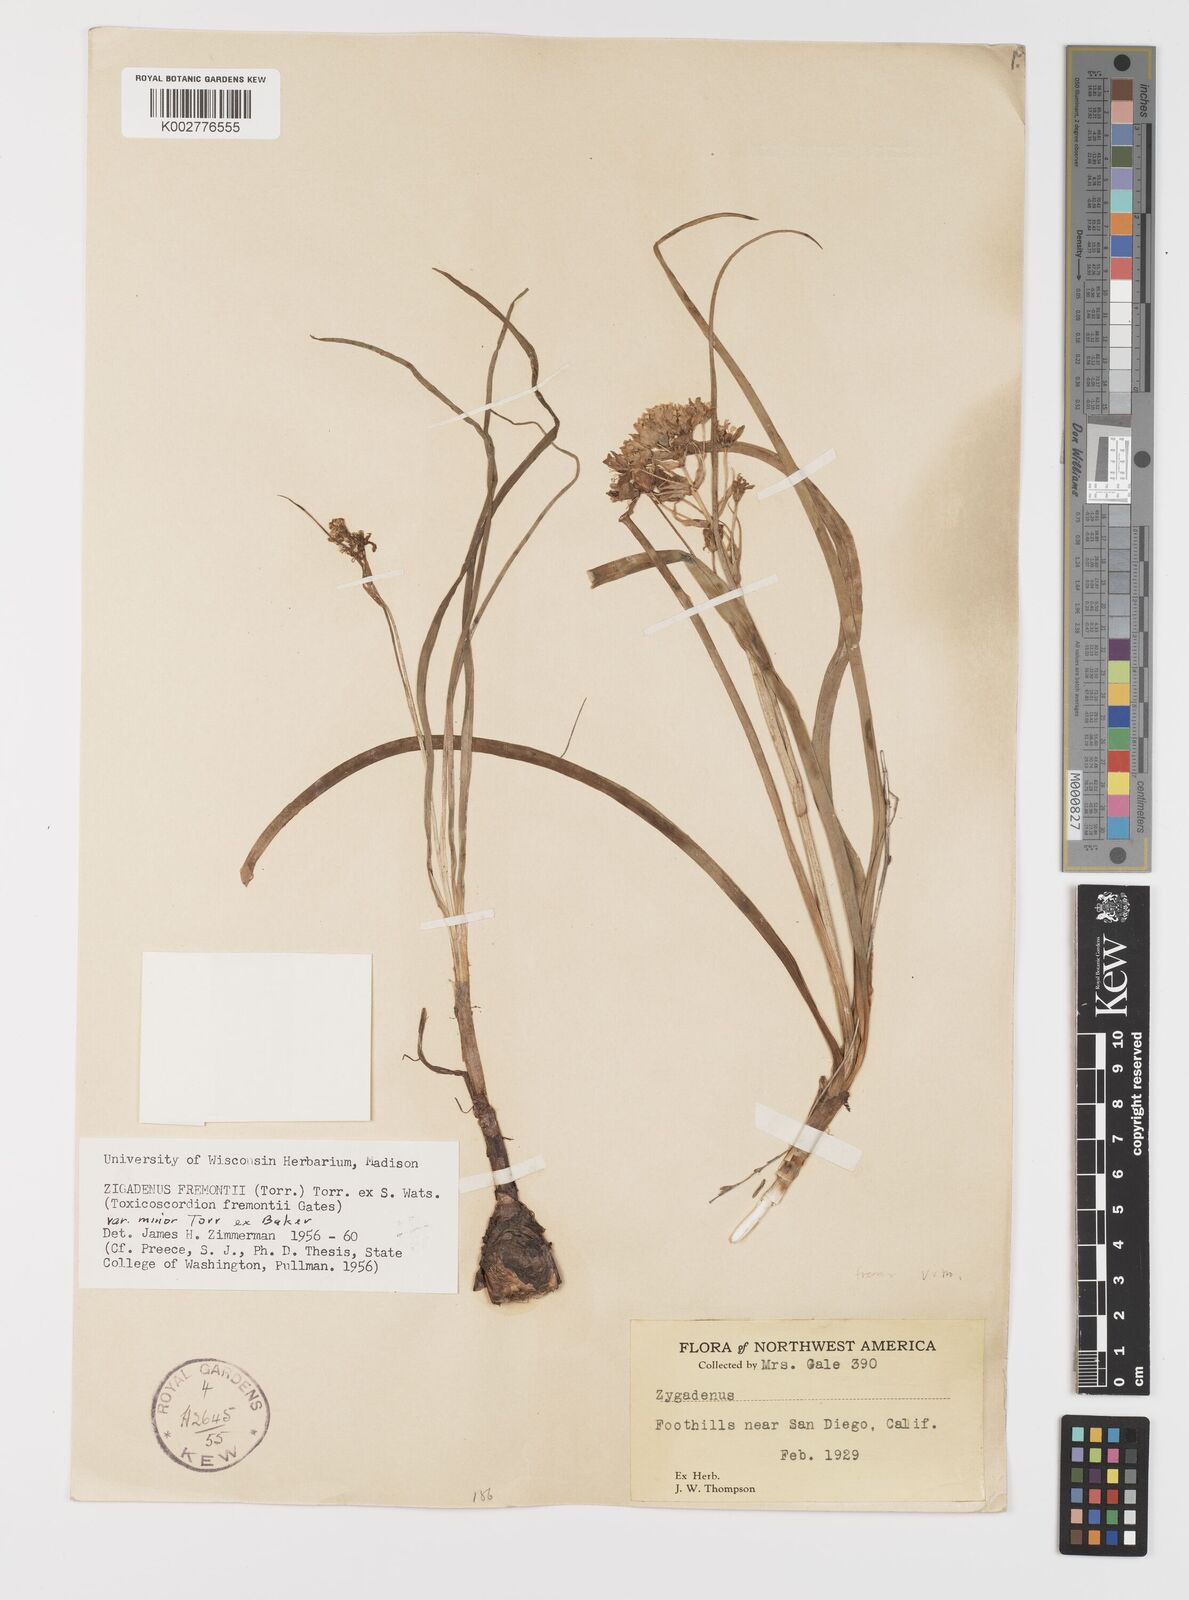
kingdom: Plantae
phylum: Tracheophyta
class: Liliopsida
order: Liliales
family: Melanthiaceae
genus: Toxicoscordion
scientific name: Toxicoscordion fremontii
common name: Fremont's death camas
